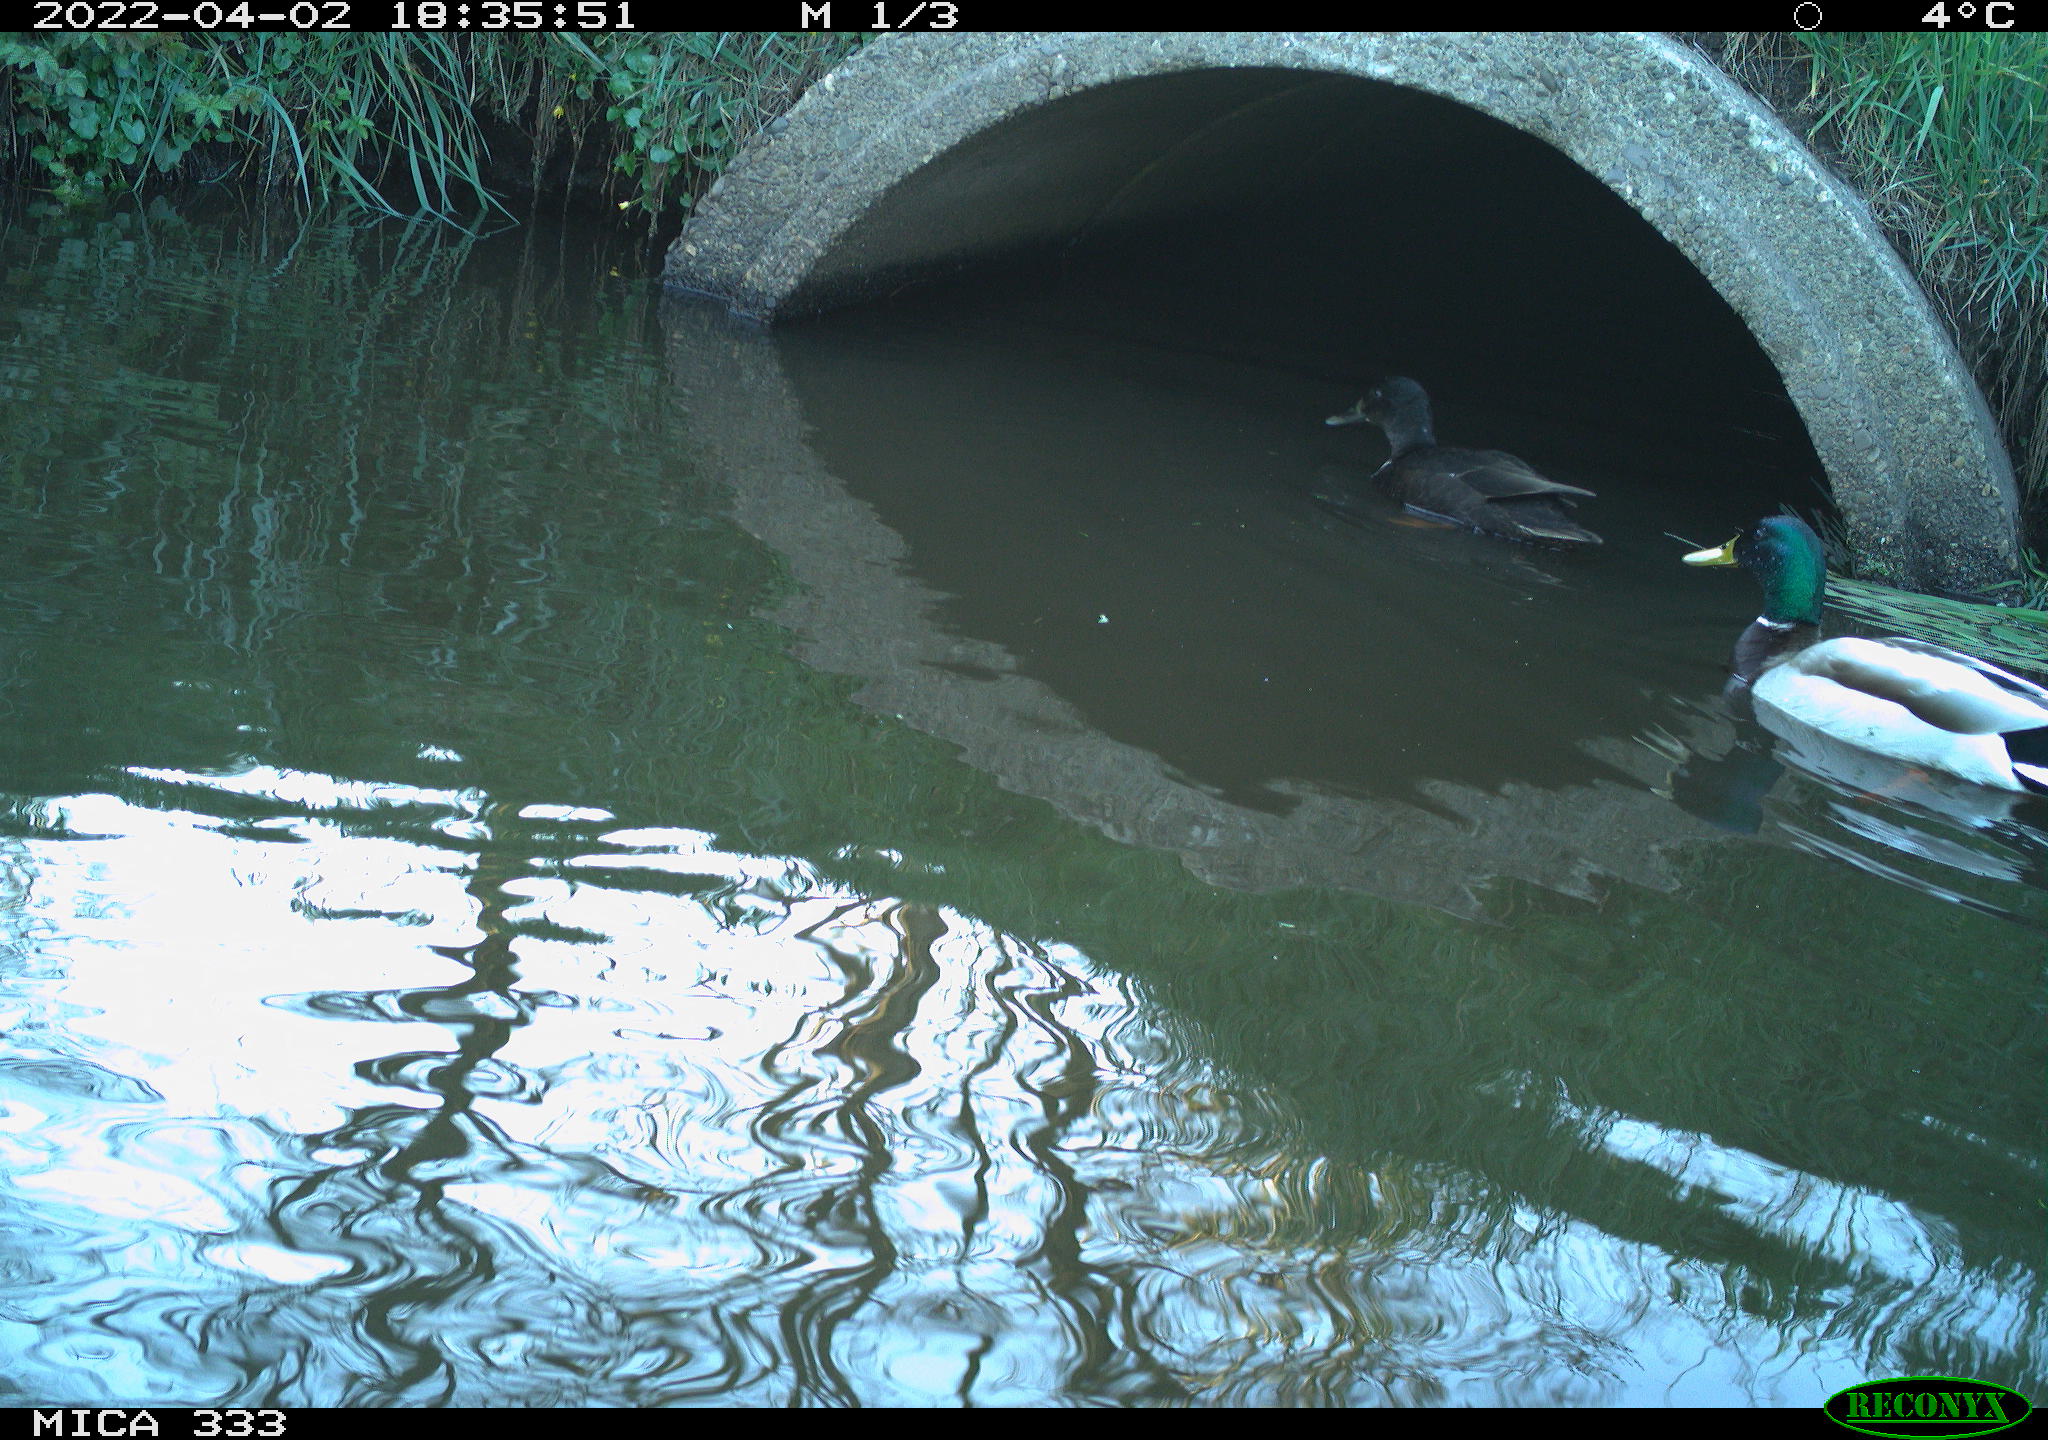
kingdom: Animalia
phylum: Chordata
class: Aves
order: Anseriformes
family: Anatidae
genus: Anas
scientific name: Anas platyrhynchos
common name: Mallard
